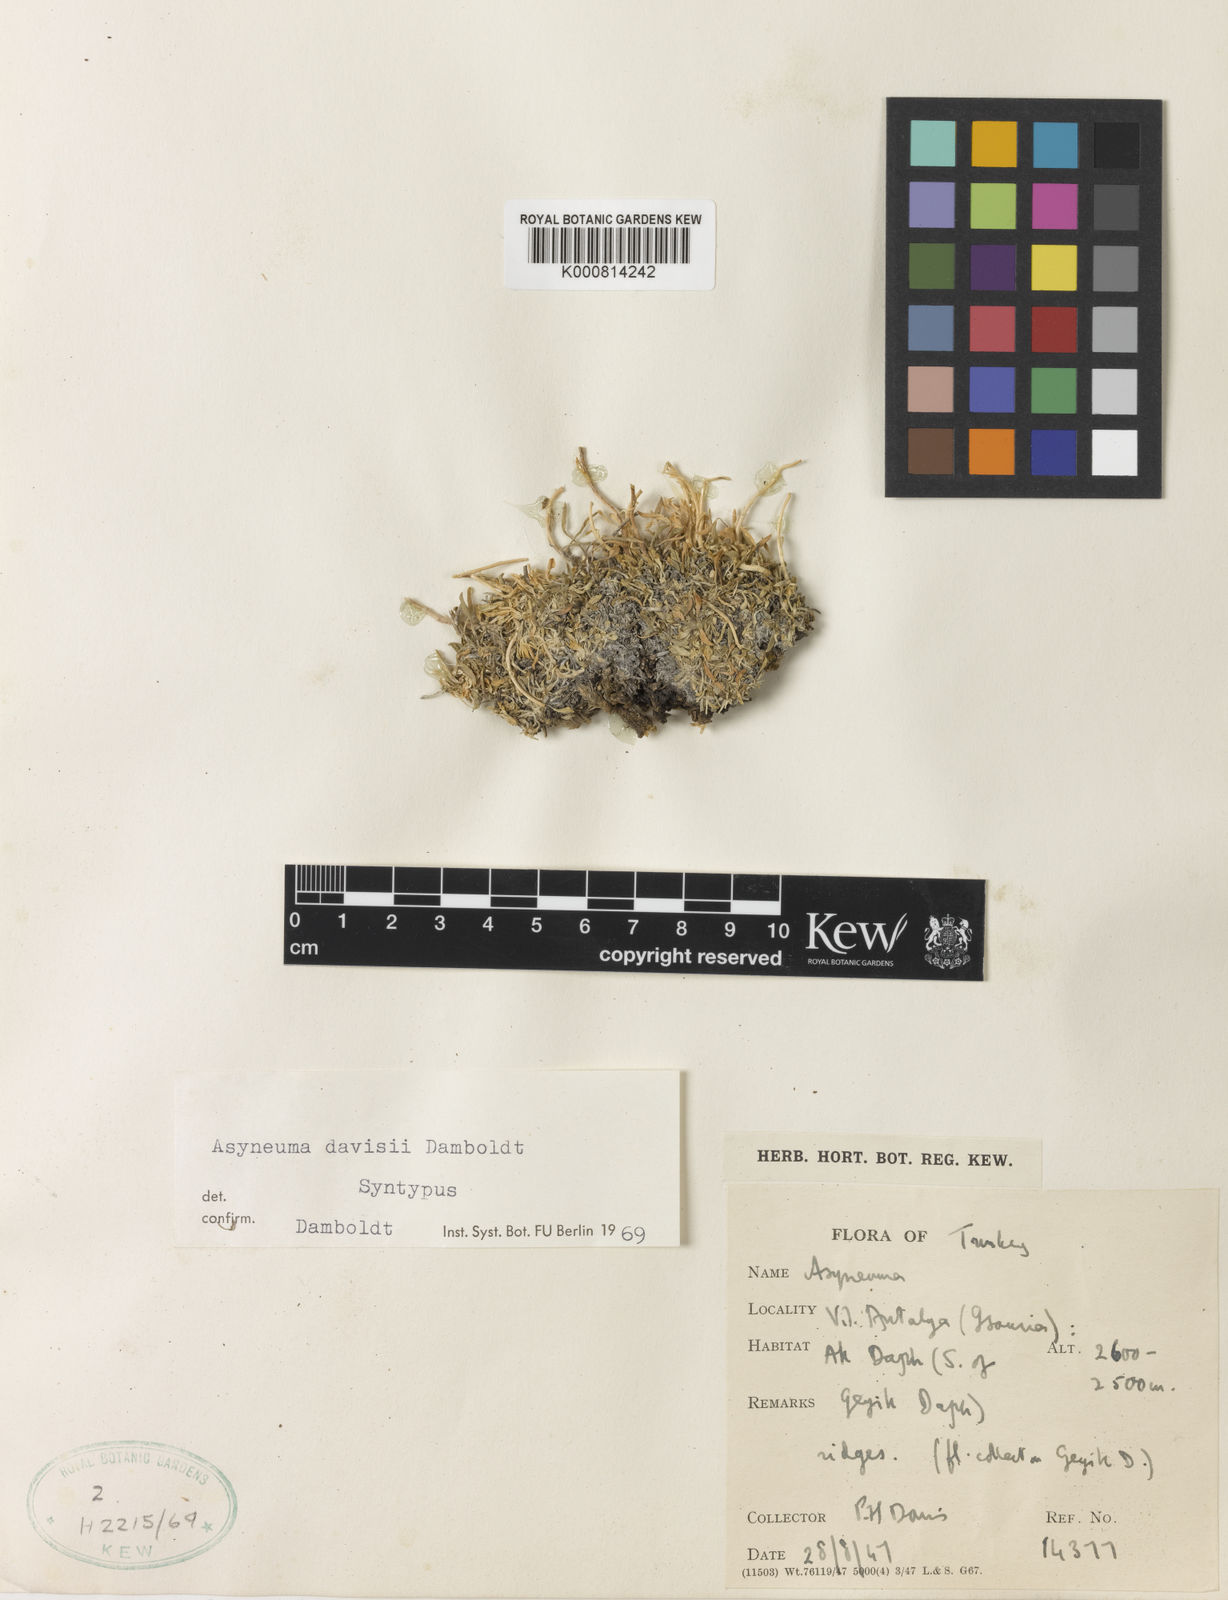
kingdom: Plantae
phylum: Tracheophyta
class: Magnoliopsida
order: Asterales
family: Campanulaceae
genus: Phyteuma
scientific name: Phyteuma
